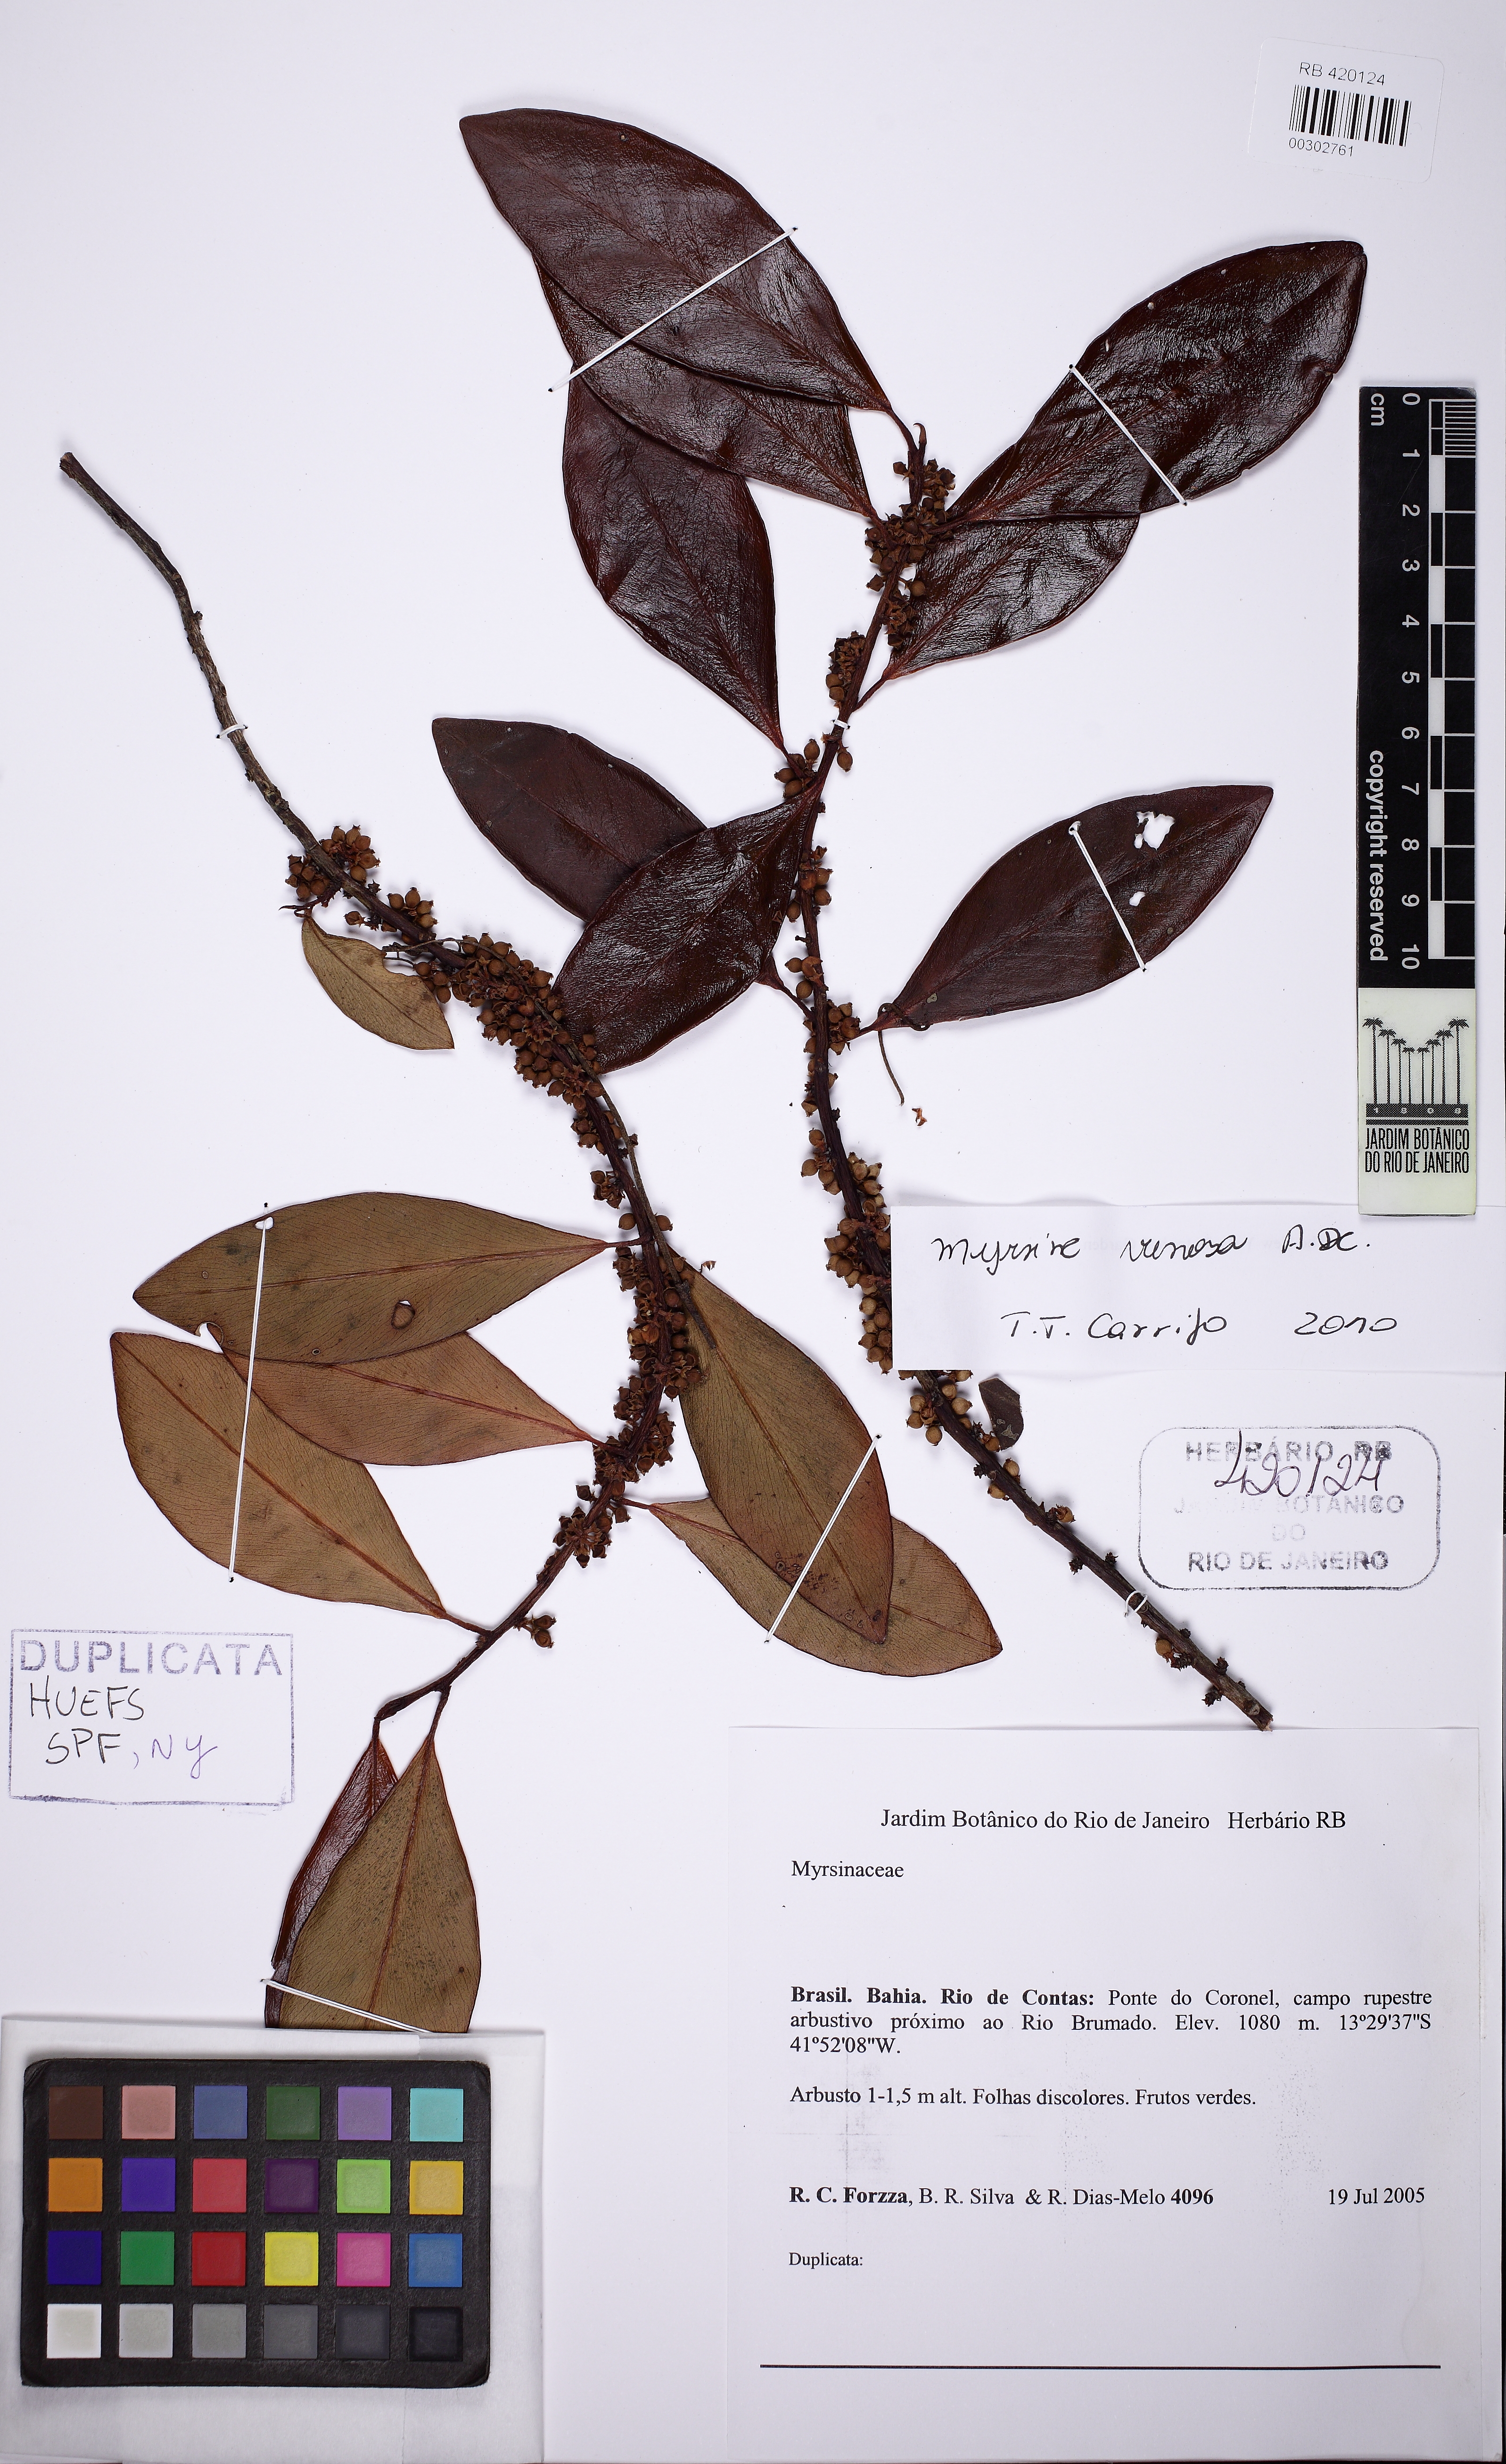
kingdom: Plantae
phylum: Tracheophyta
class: Magnoliopsida
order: Ericales
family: Primulaceae
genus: Myrsine
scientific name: Myrsine venosa
